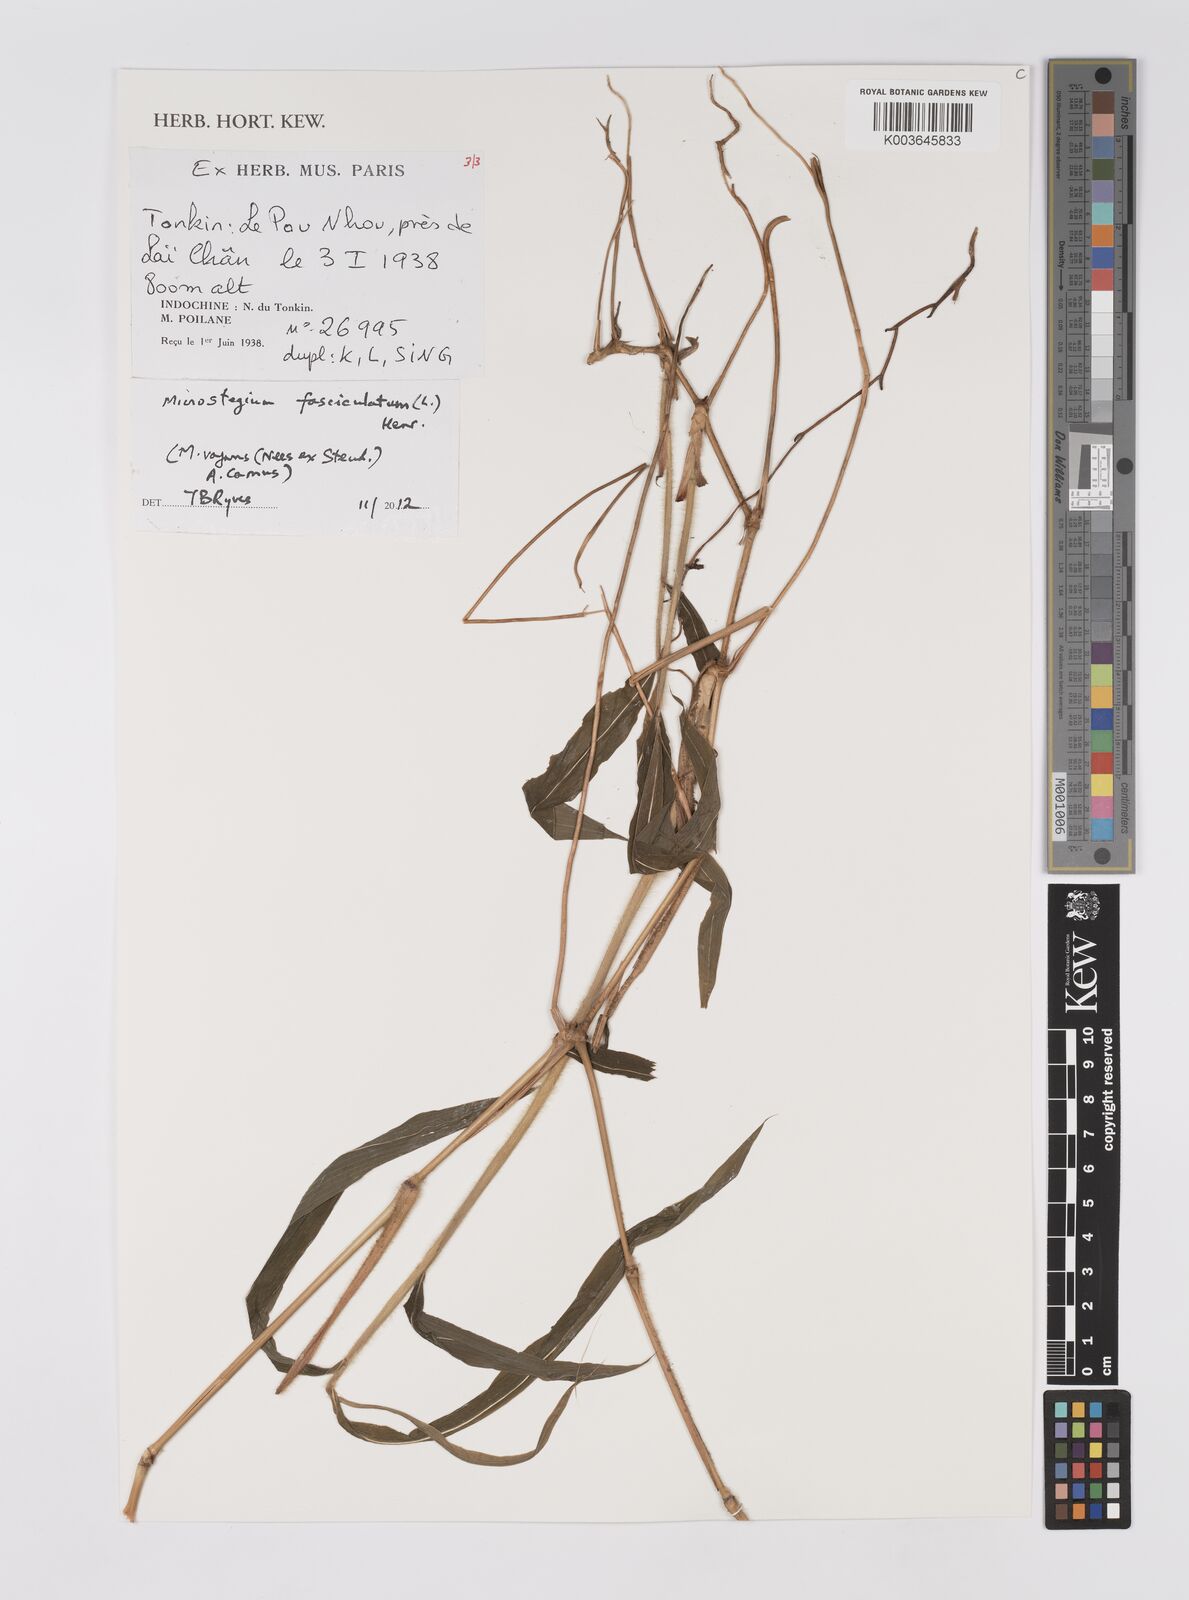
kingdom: Plantae
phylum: Tracheophyta
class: Liliopsida
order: Poales
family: Poaceae
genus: Microstegium
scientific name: Microstegium fasciculatum
